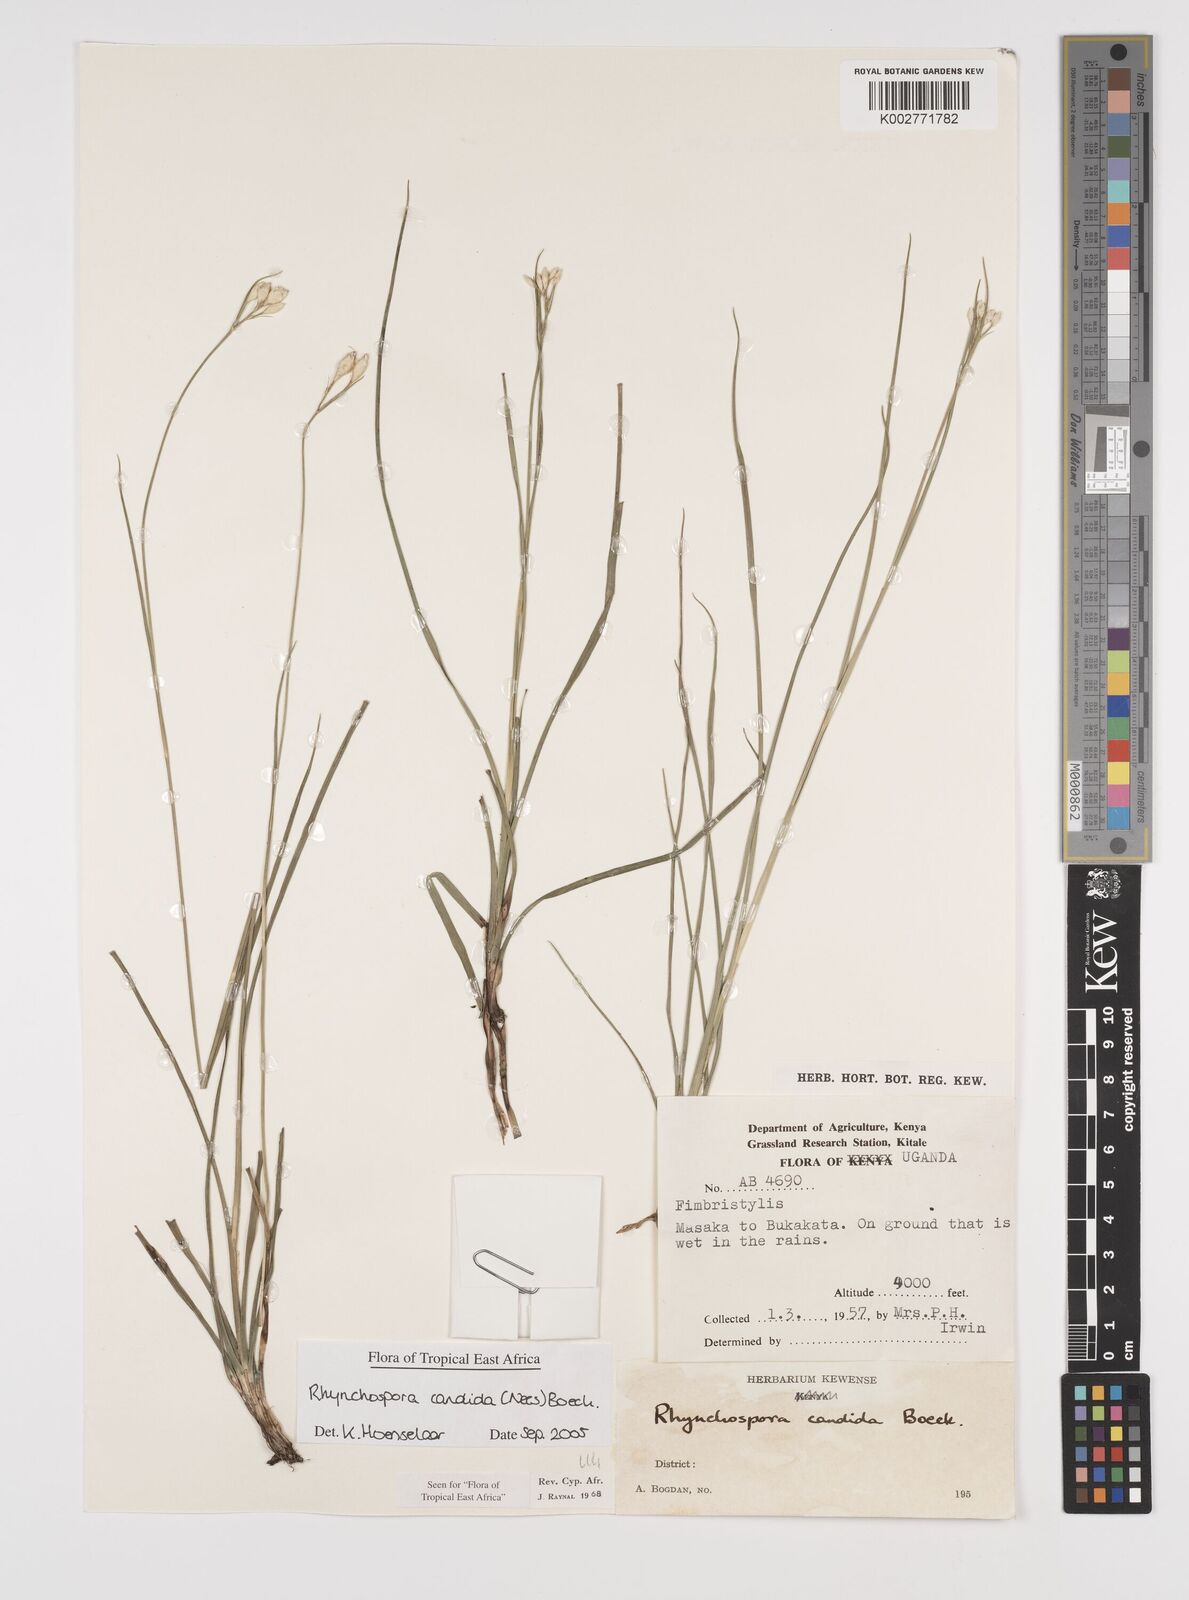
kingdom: Plantae
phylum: Tracheophyta
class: Liliopsida
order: Poales
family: Cyperaceae
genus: Rhynchospora
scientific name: Rhynchospora candida
